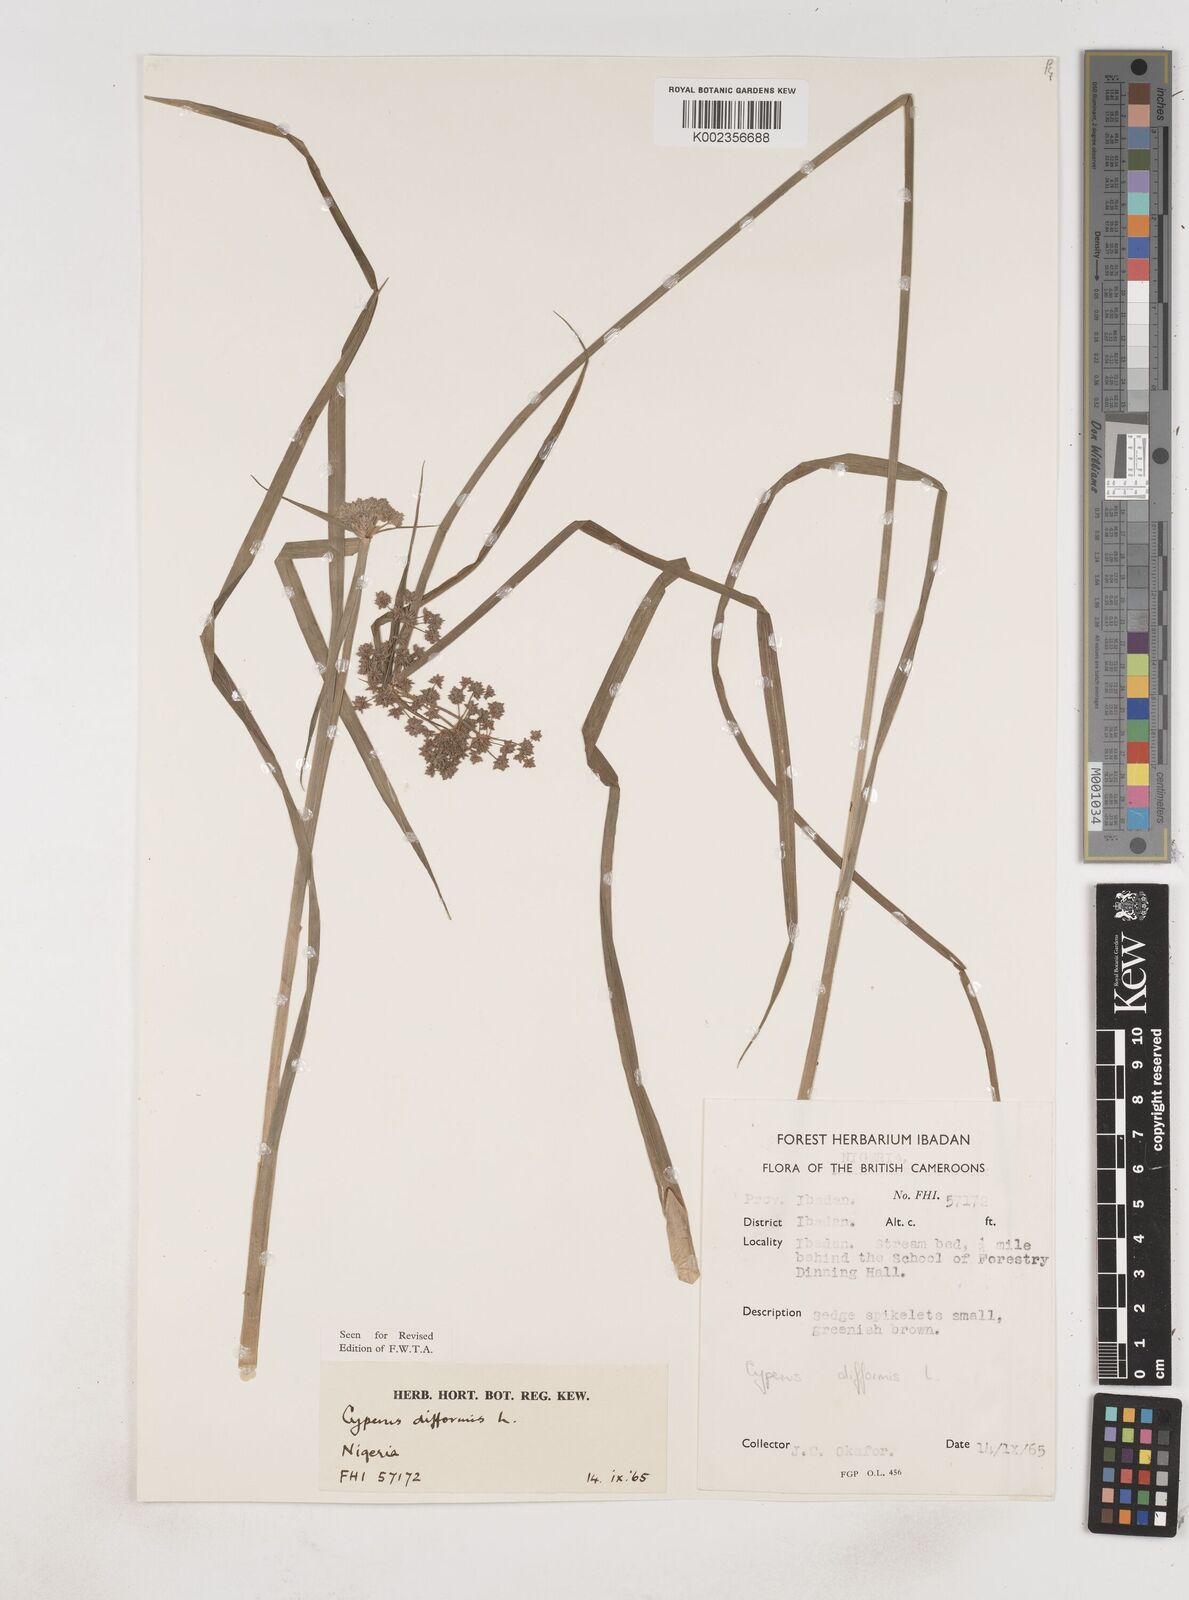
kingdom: Plantae
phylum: Tracheophyta
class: Liliopsida
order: Poales
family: Cyperaceae
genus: Cyperus
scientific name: Cyperus difformis
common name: Variable flatsedge
